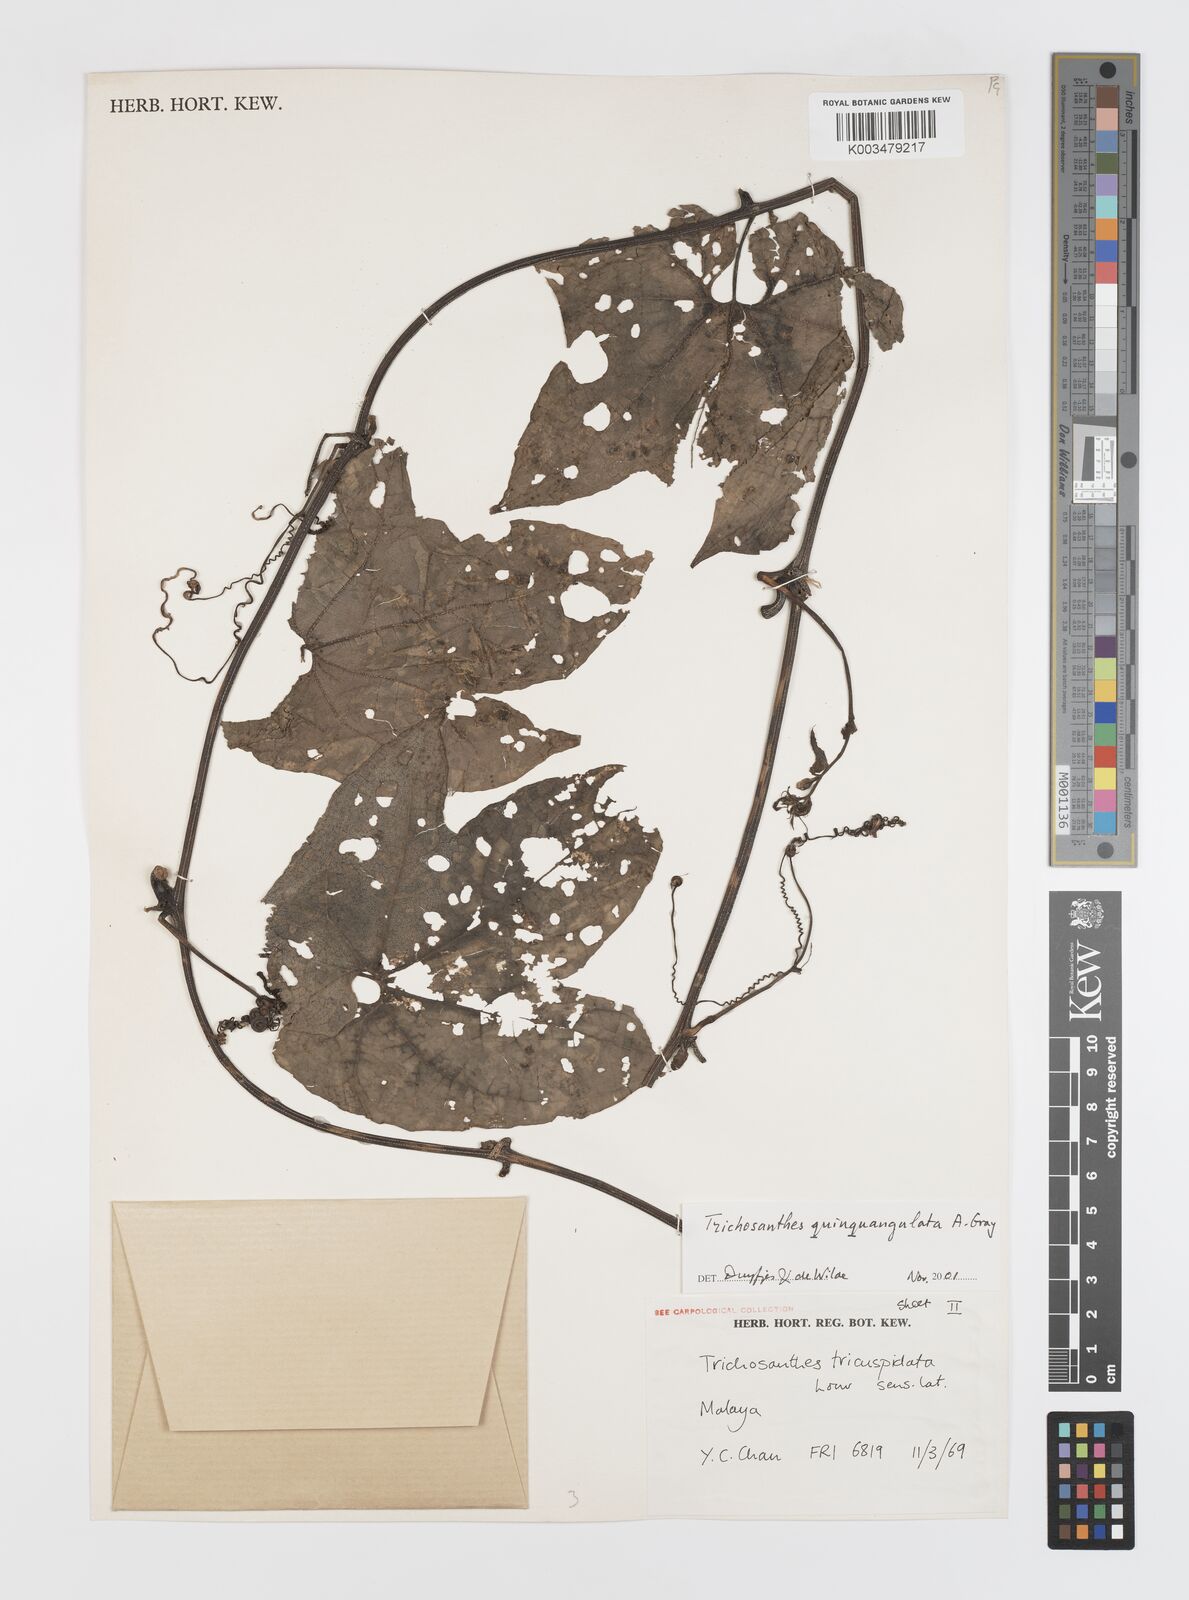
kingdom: Plantae
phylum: Tracheophyta
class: Magnoliopsida
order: Cucurbitales
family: Cucurbitaceae
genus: Trichosanthes
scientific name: Trichosanthes quinquangulata
